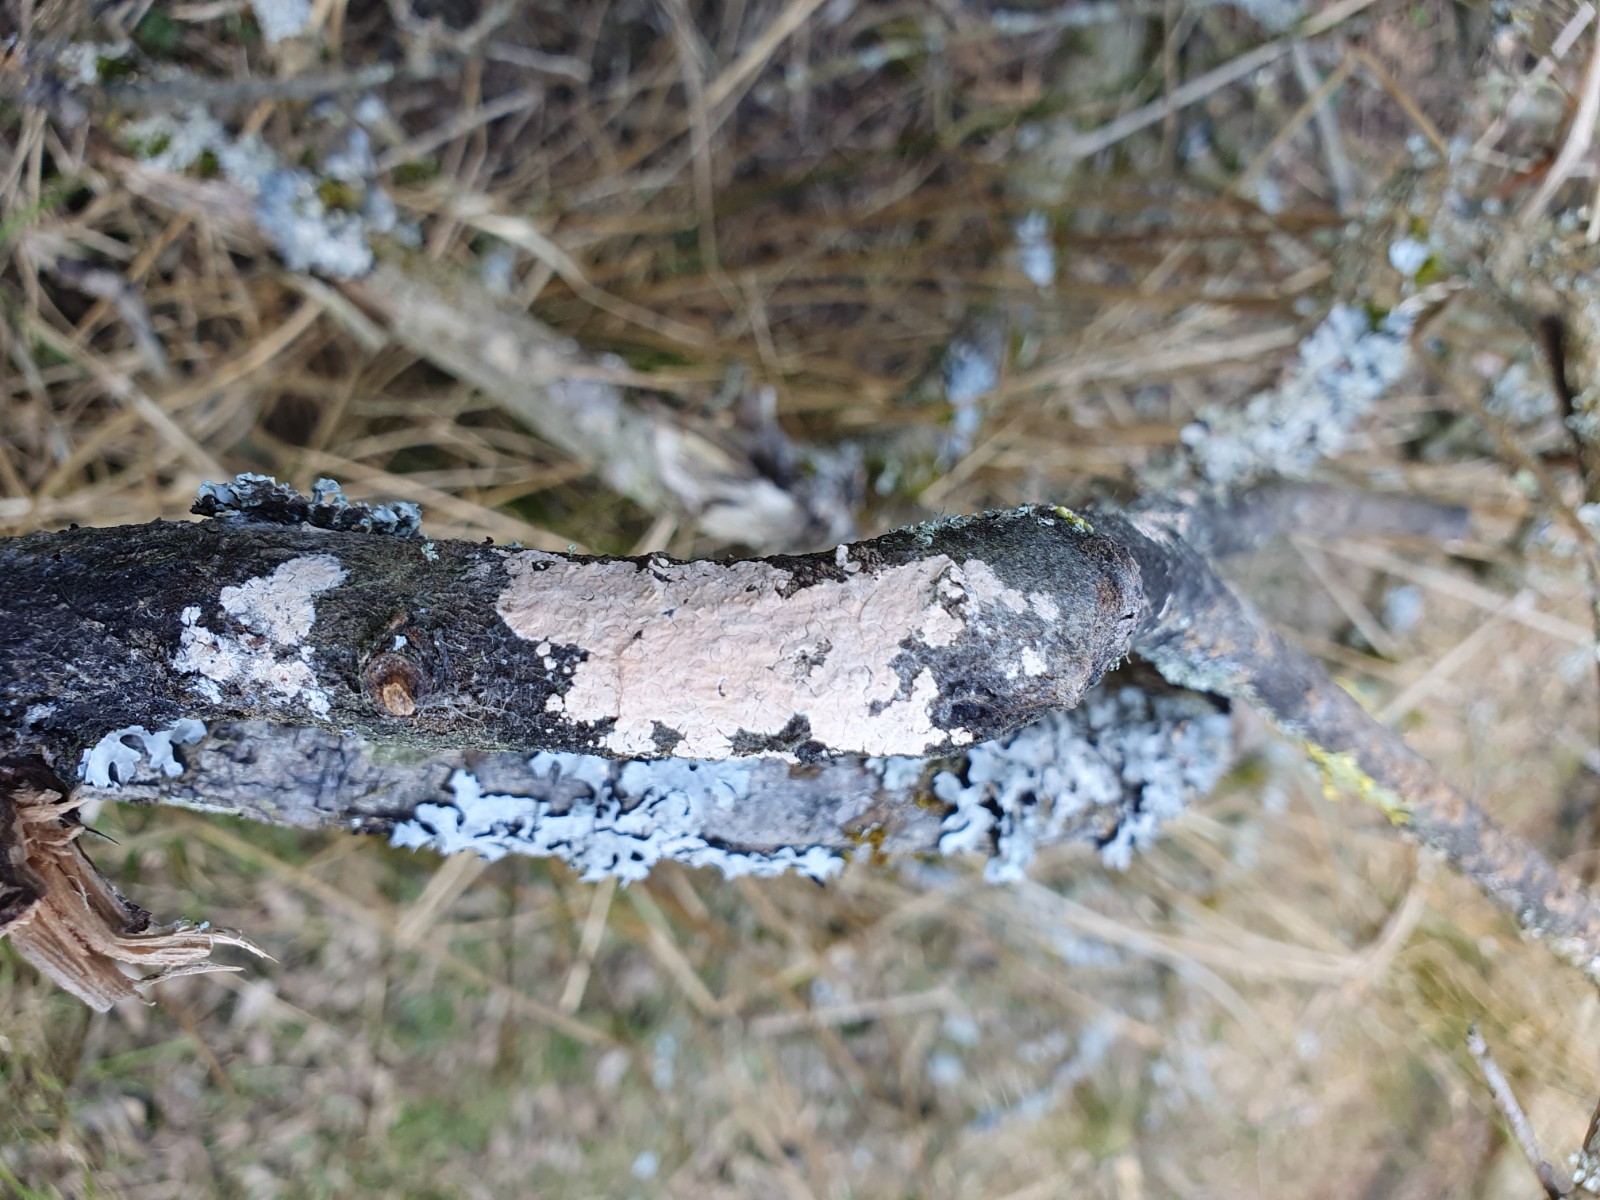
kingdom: Fungi
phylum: Basidiomycota
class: Agaricomycetes
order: Corticiales
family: Corticiaceae
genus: Corticium
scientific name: Corticium roseum
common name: rosa barkskind
